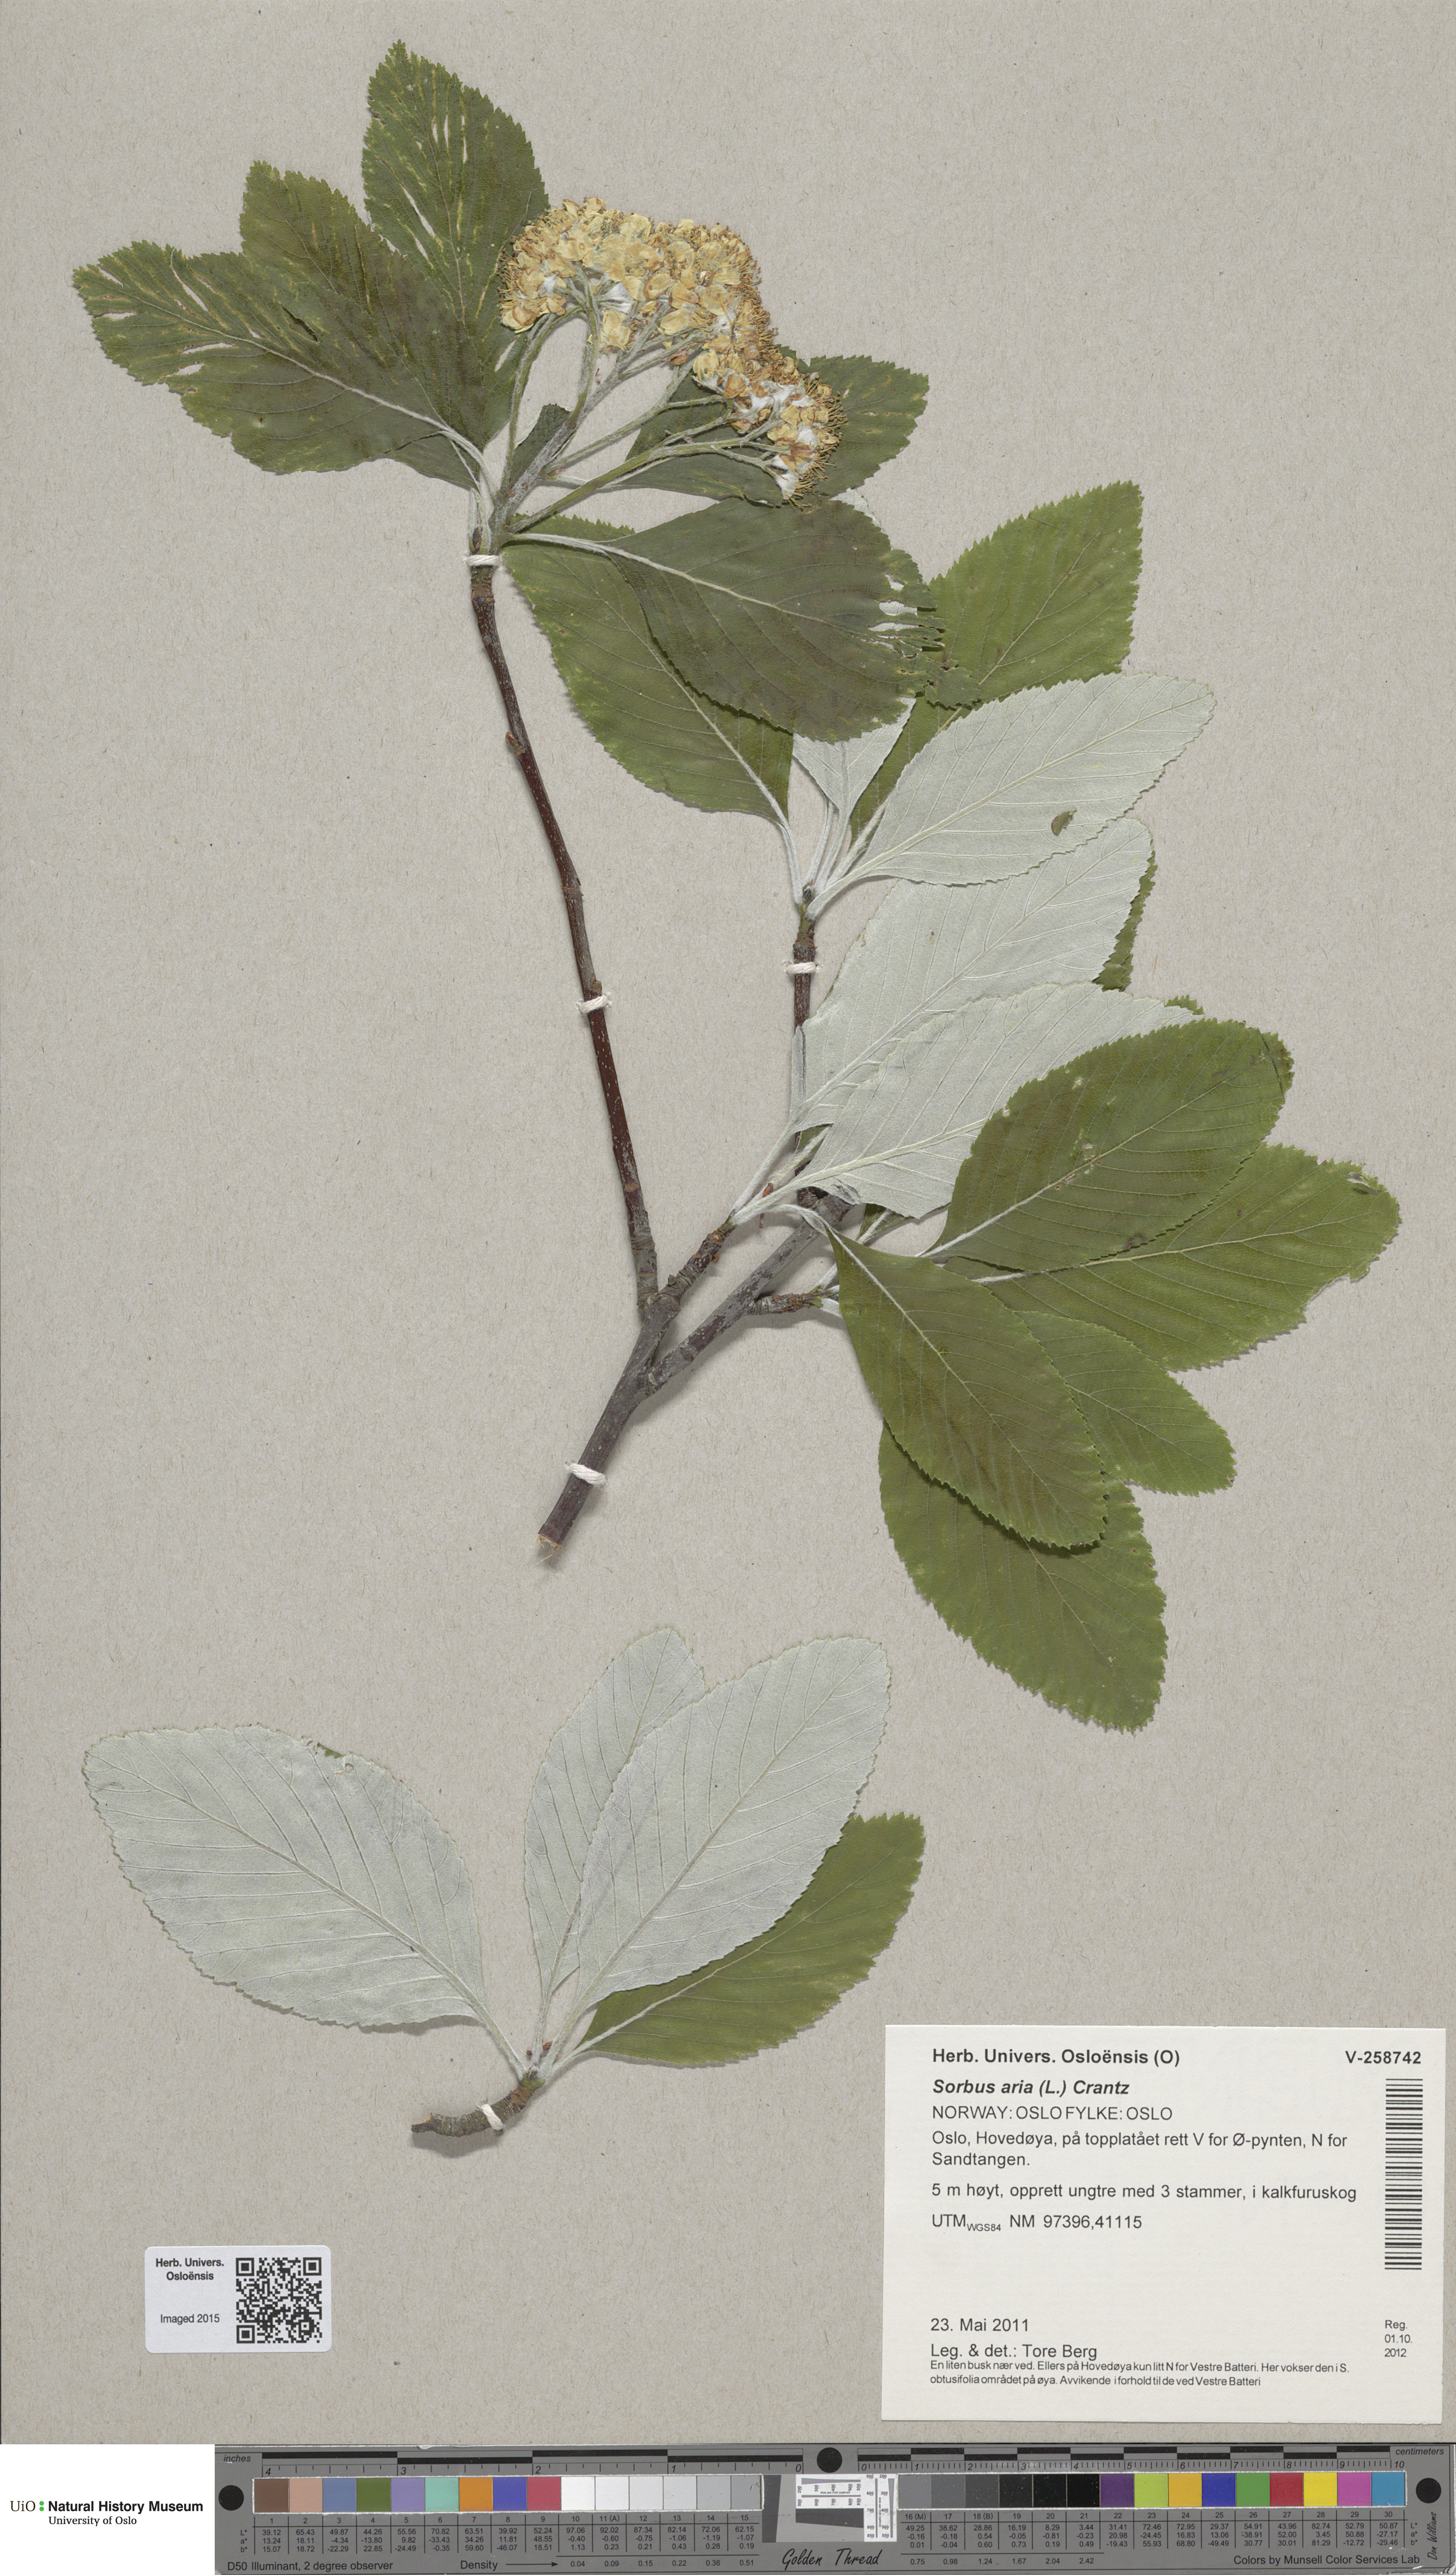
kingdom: Plantae
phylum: Tracheophyta
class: Magnoliopsida
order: Rosales
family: Rosaceae
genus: Aria
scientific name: Aria edulis
